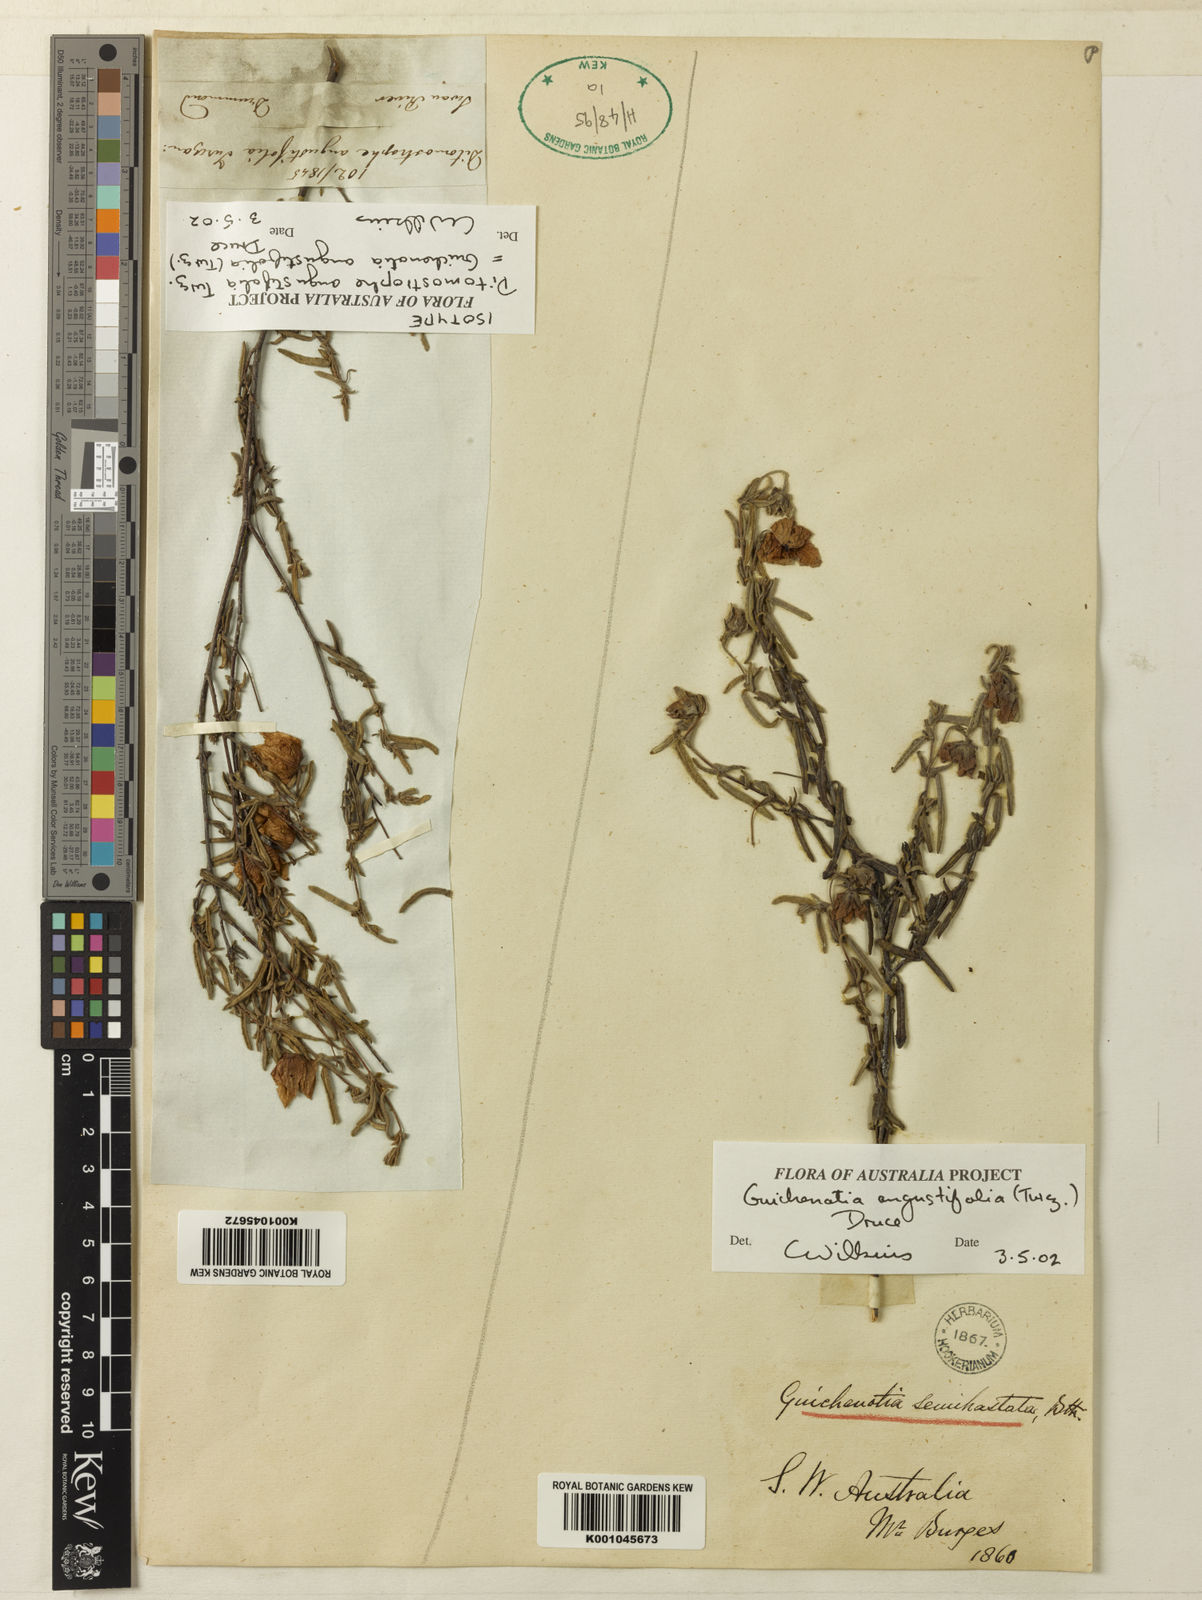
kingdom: Plantae
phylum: Tracheophyta
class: Magnoliopsida
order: Malvales
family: Malvaceae
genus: Guichenotia
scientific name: Guichenotia angustifolia
